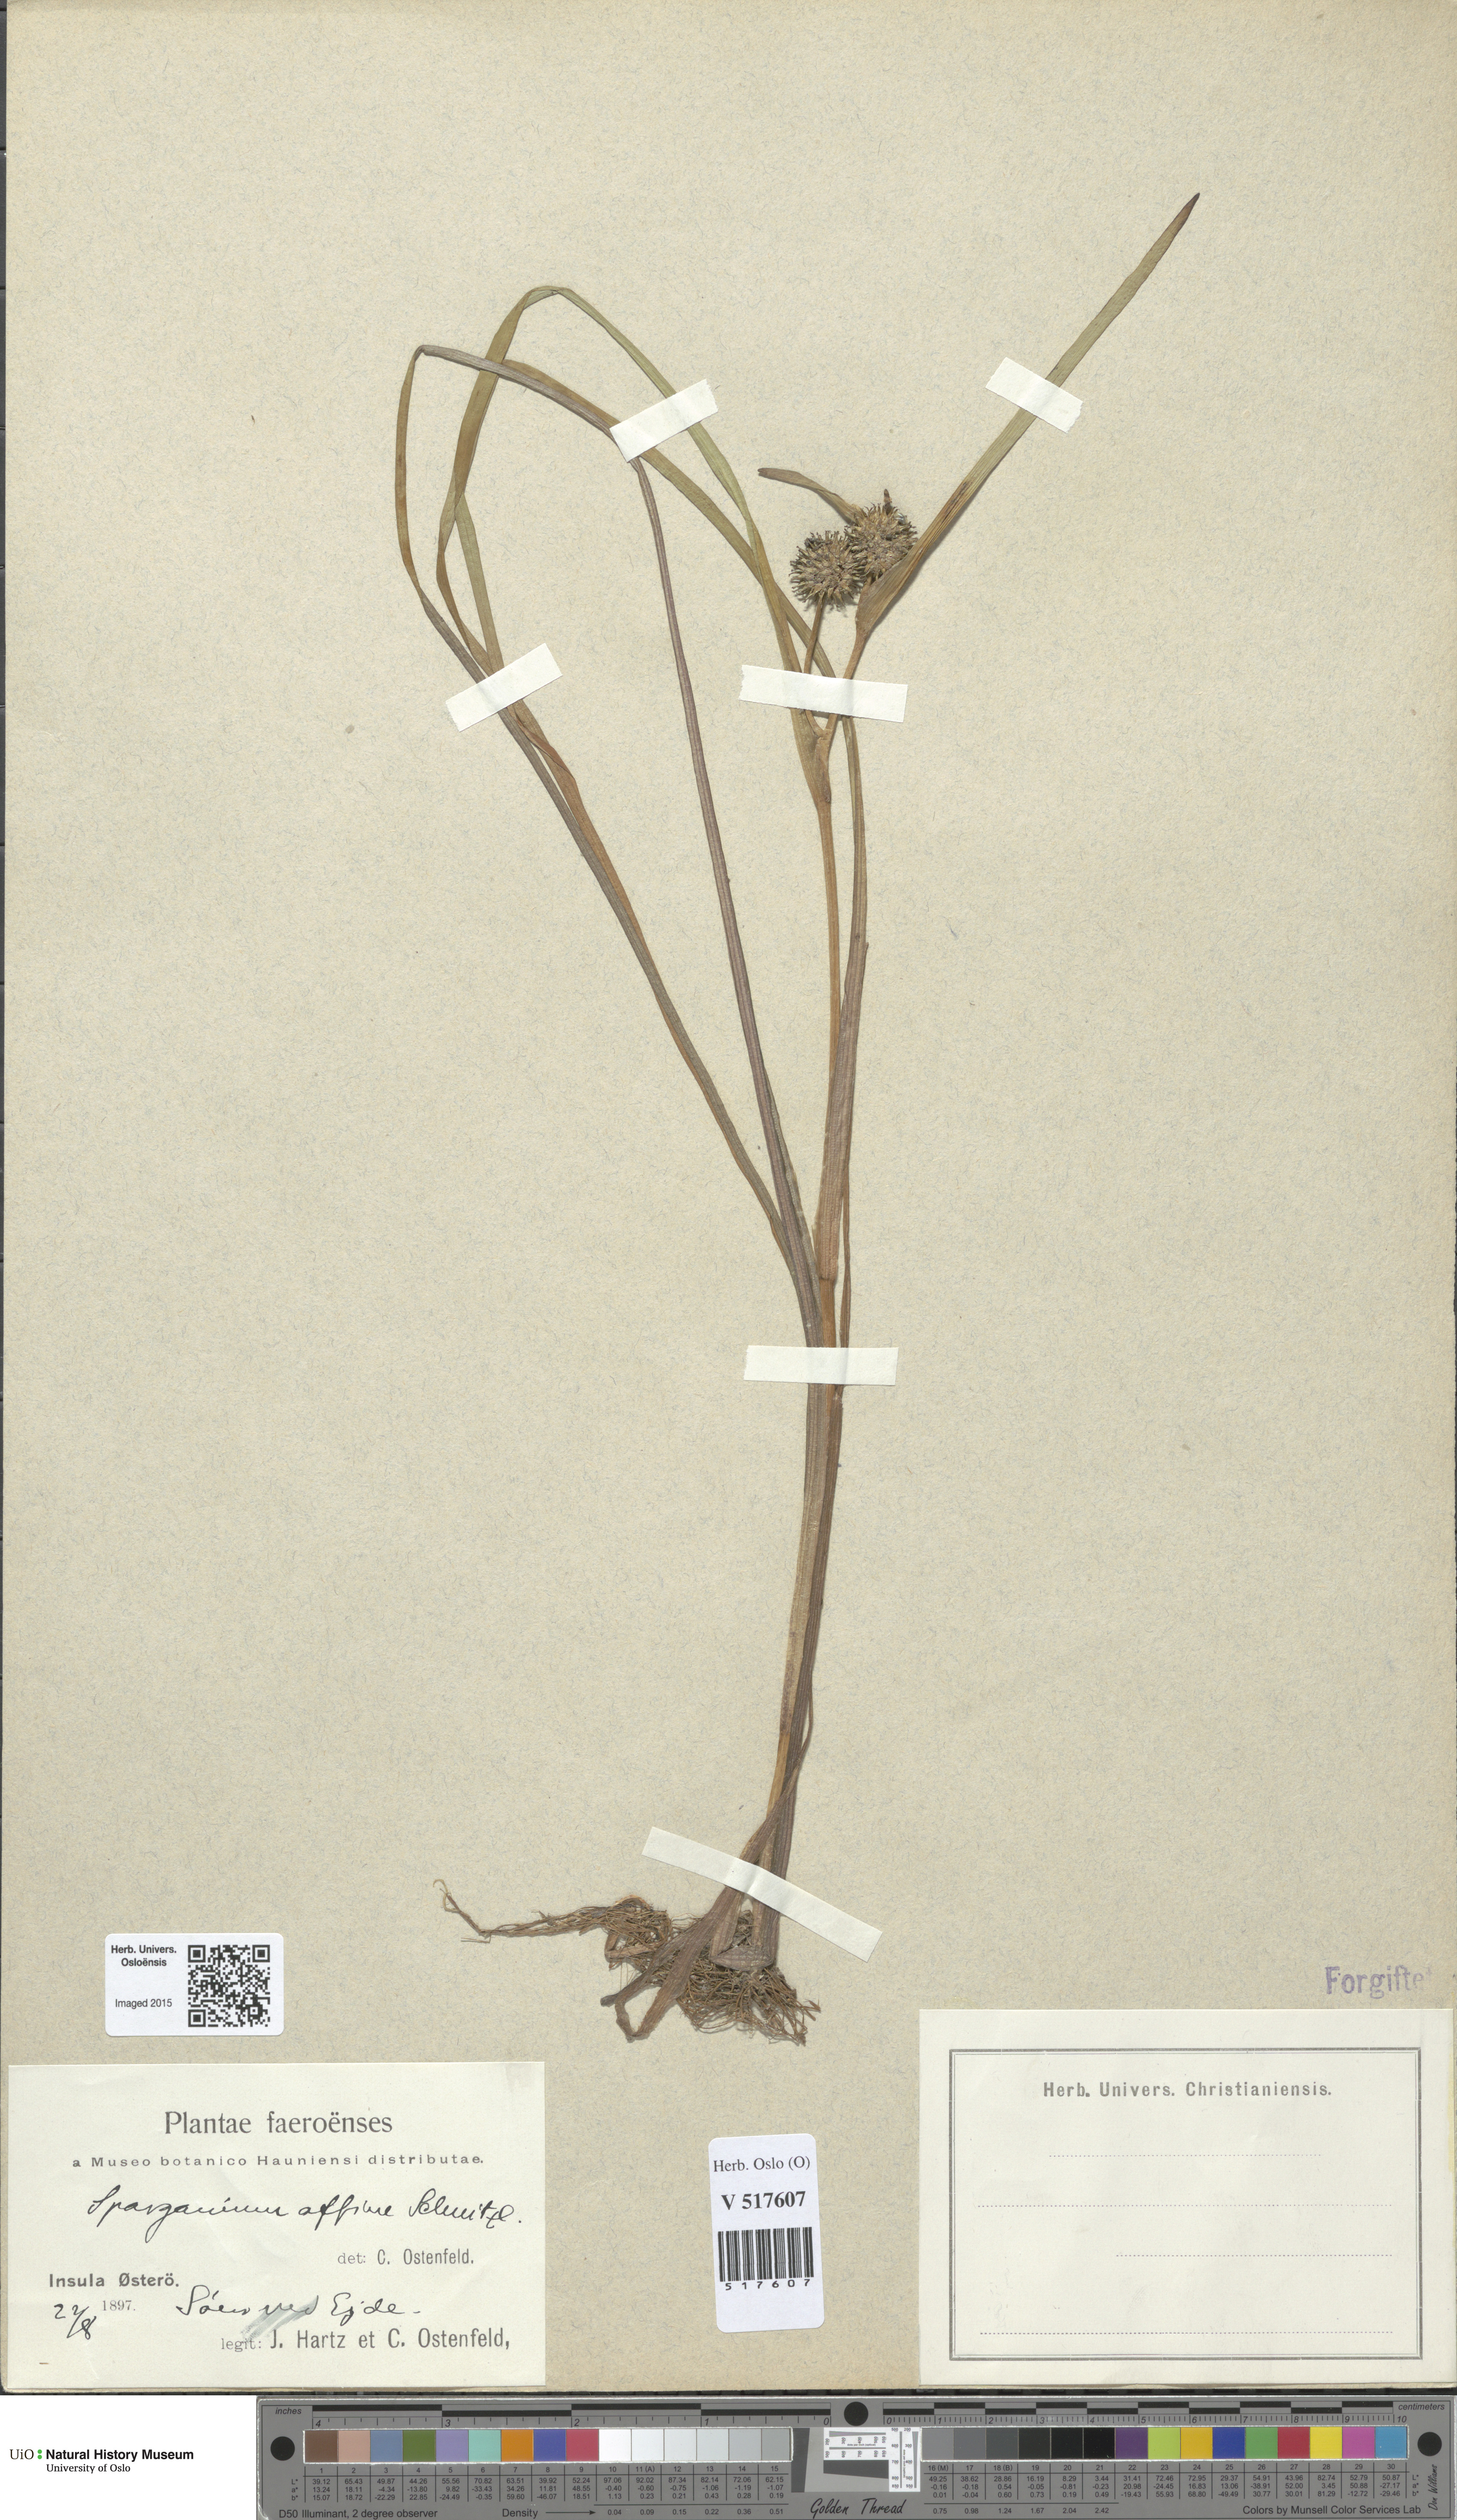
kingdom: Plantae
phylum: Tracheophyta
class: Liliopsida
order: Poales
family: Typhaceae
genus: Sparganium
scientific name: Sparganium angustifolium
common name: Floating bur-reed
